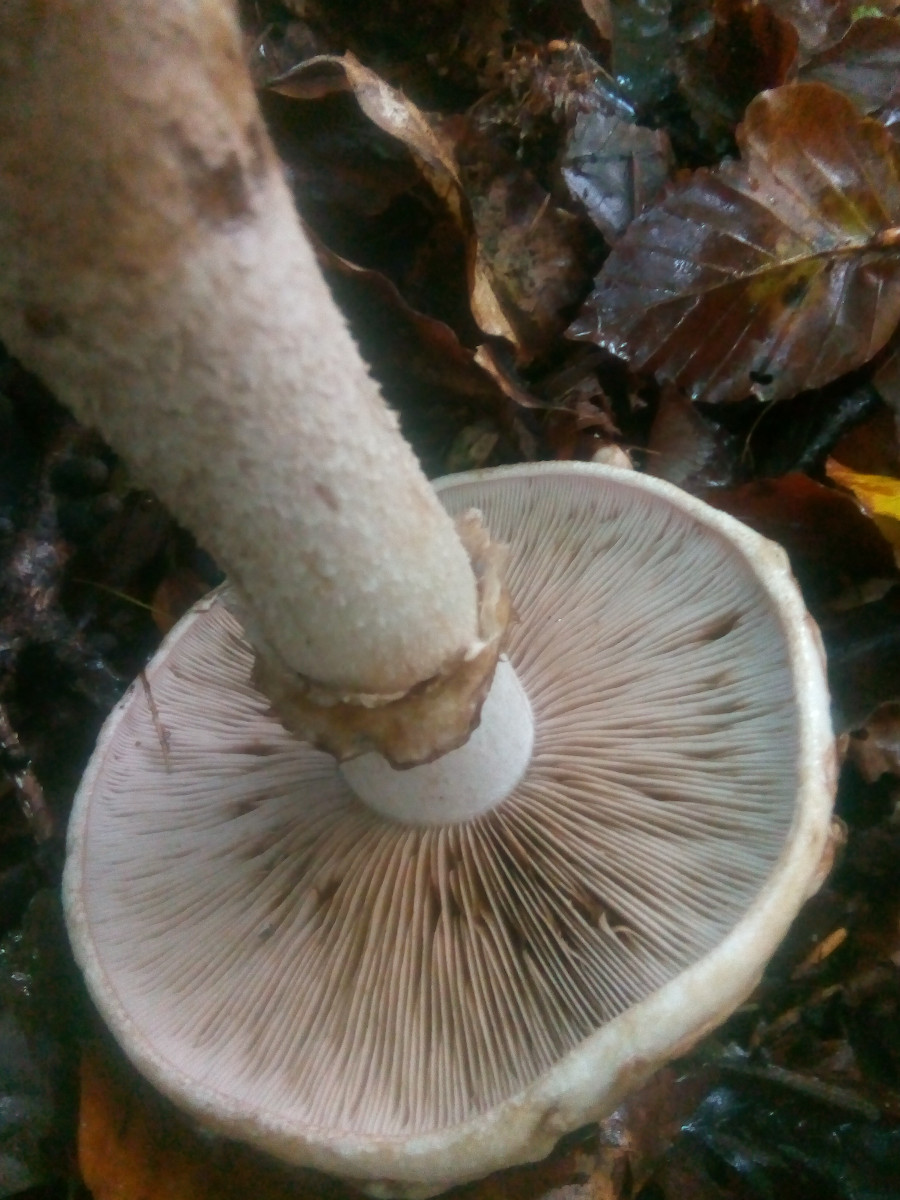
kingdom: Fungi
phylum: Basidiomycota
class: Agaricomycetes
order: Agaricales
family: Hymenogastraceae
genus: Hebeloma
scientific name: Hebeloma radicosum
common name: pælerods-tåreblad
